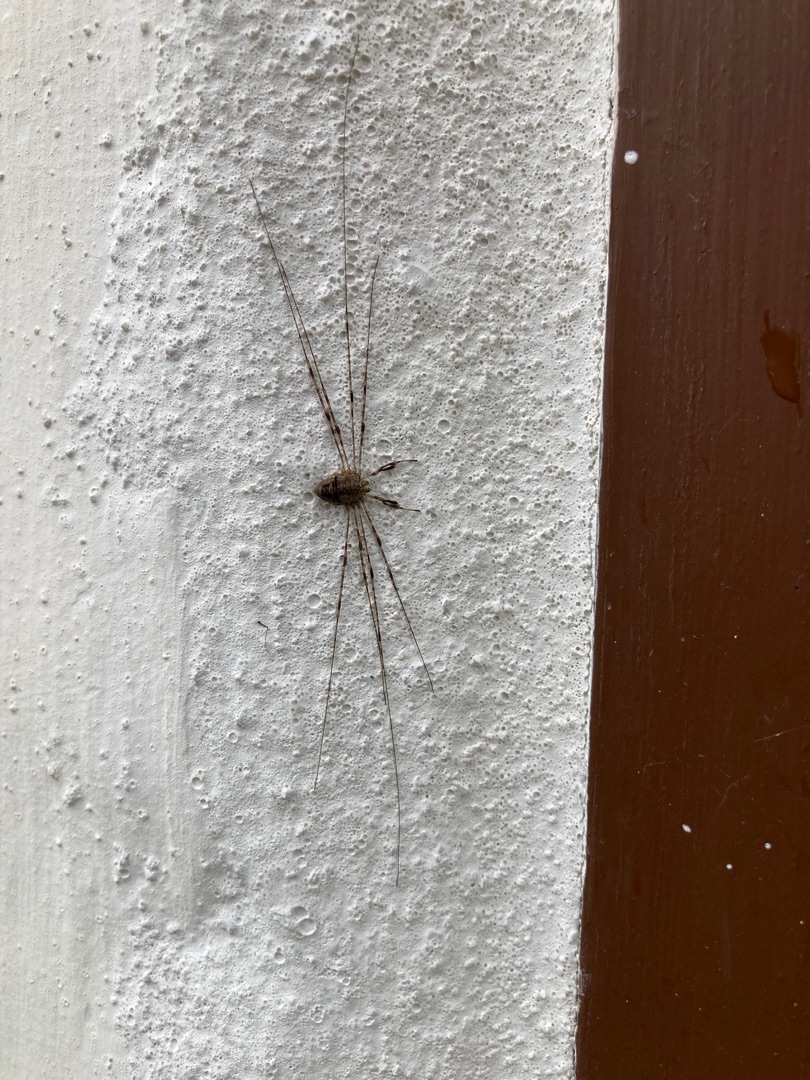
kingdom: Animalia
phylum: Arthropoda
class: Arachnida
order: Opiliones
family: Phalangiidae
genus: Dicranopalpus
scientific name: Dicranopalpus ramosus
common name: Gaffelmejer
